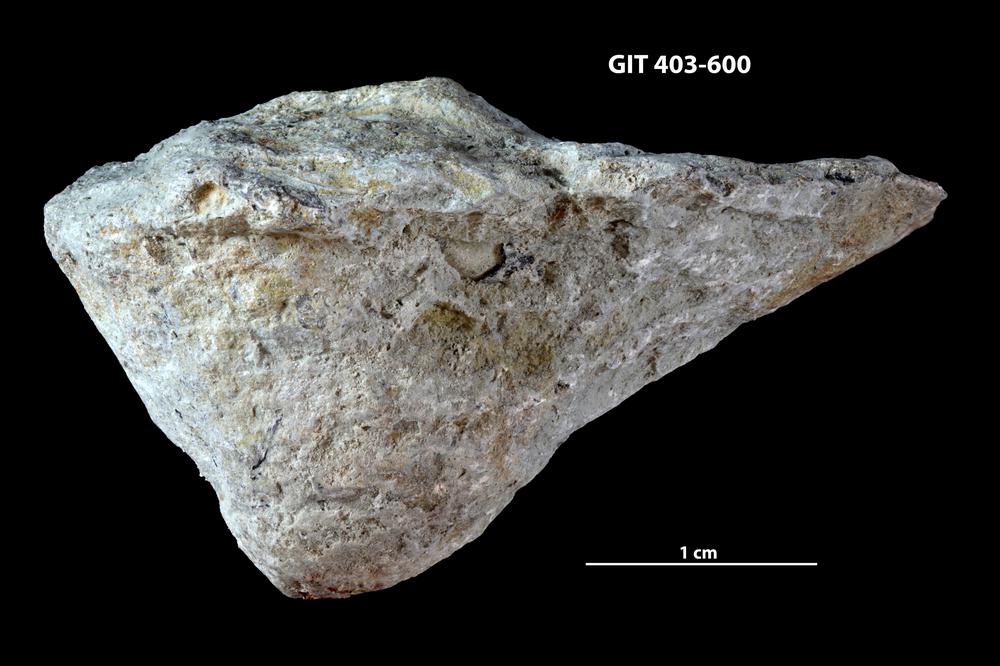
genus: Conichnus
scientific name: Conichnus
